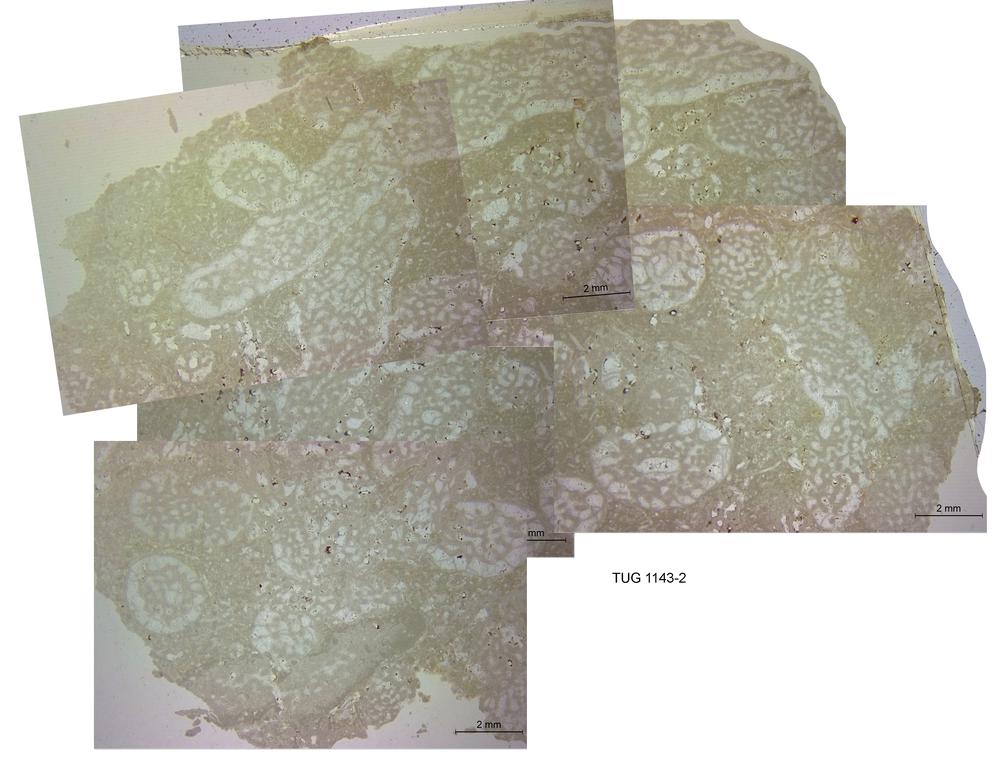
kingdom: Animalia
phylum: Nemertea
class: Hoplonemertea
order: Monostilifera
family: Amphiporidae
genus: Amphipora
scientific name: Amphipora Caunopora ramosa
